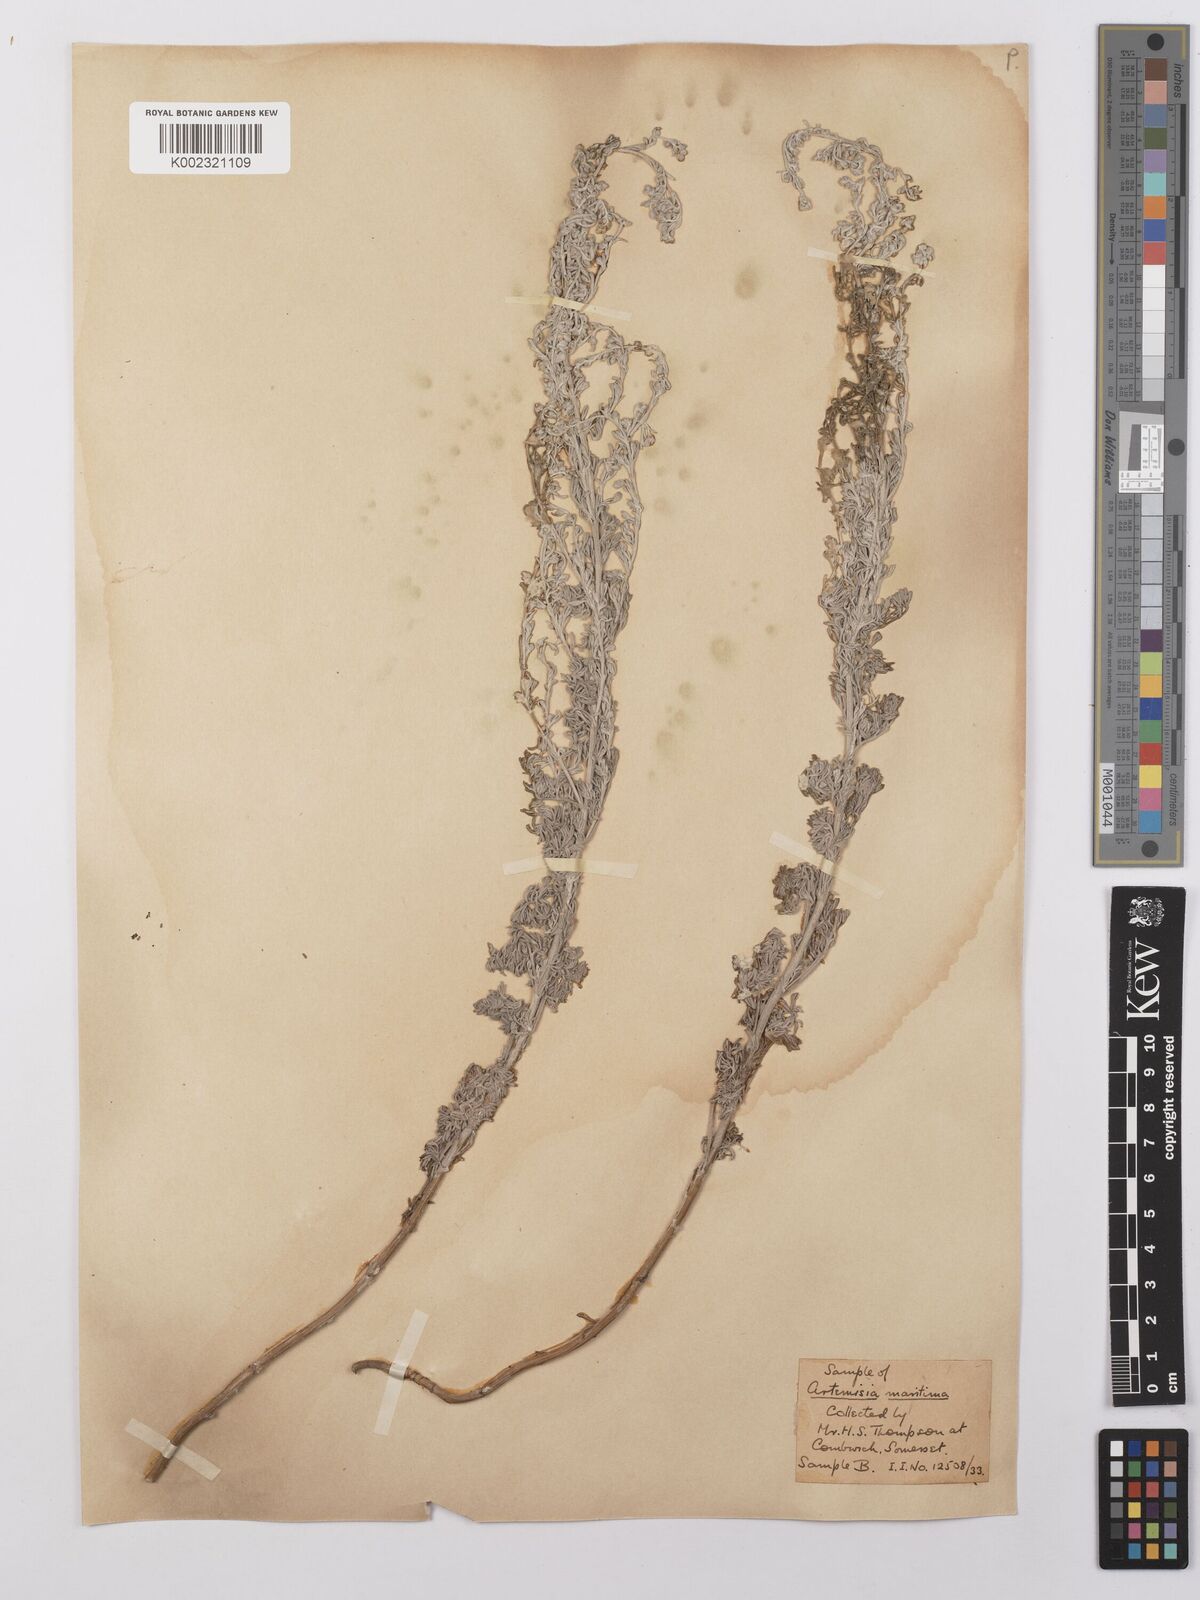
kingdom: Plantae
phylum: Tracheophyta
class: Magnoliopsida
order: Asterales
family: Asteraceae
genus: Artemisia
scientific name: Artemisia maritima
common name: Wormseed
